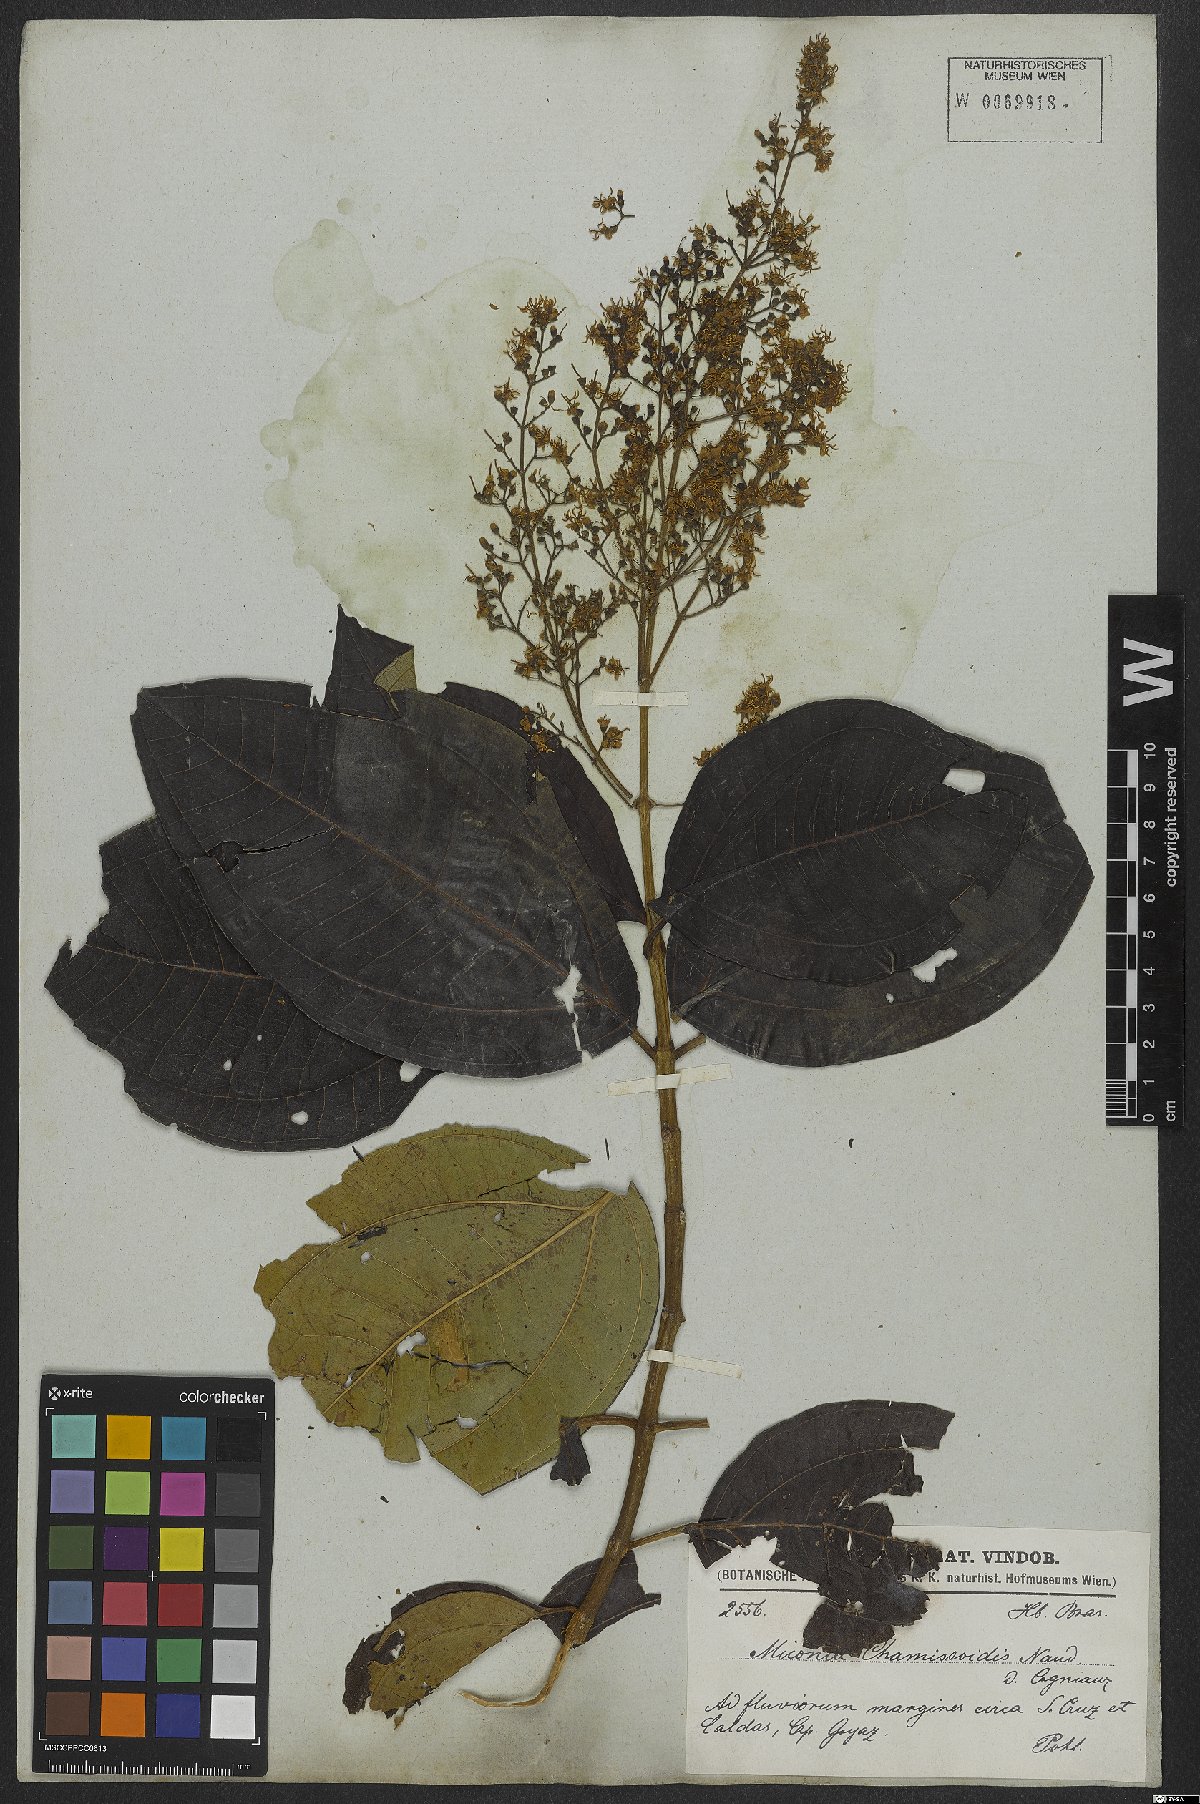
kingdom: Plantae
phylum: Tracheophyta
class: Magnoliopsida
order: Myrtales
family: Melastomataceae
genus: Miconia
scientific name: Miconia chamissois
